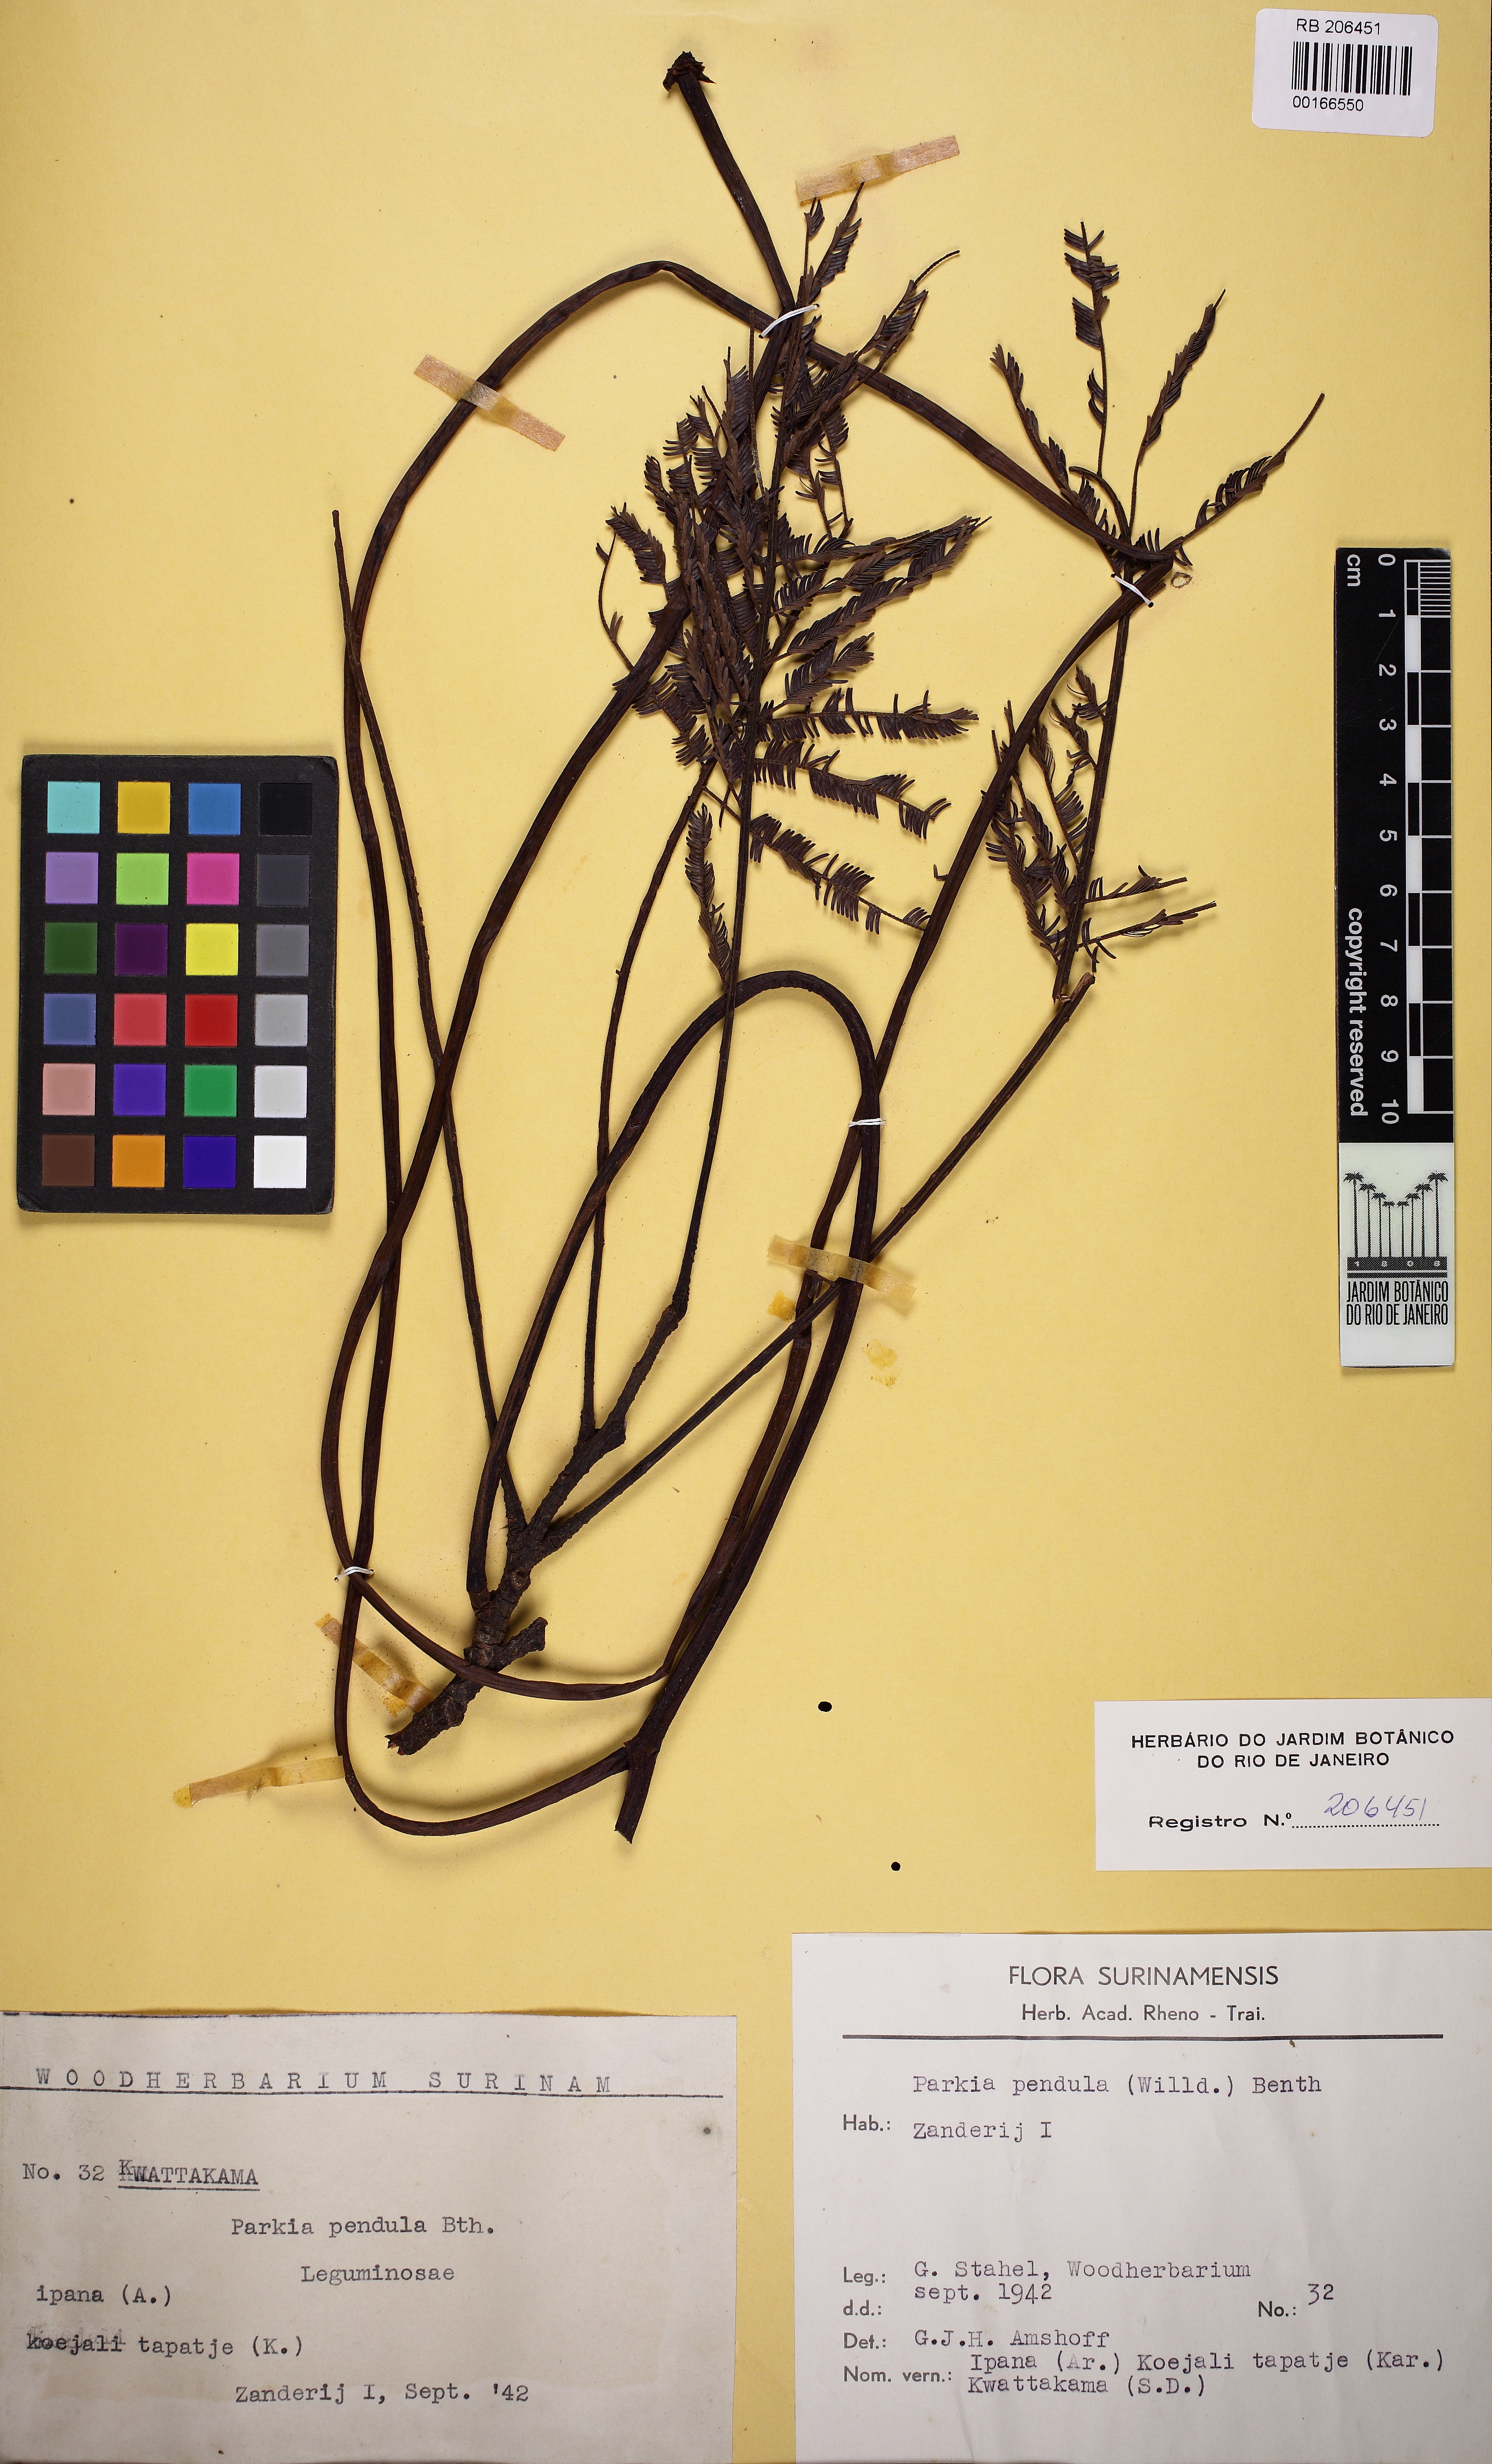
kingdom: Plantae
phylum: Tracheophyta
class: Magnoliopsida
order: Fabales
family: Fabaceae
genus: Parkia
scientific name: Parkia pendula
